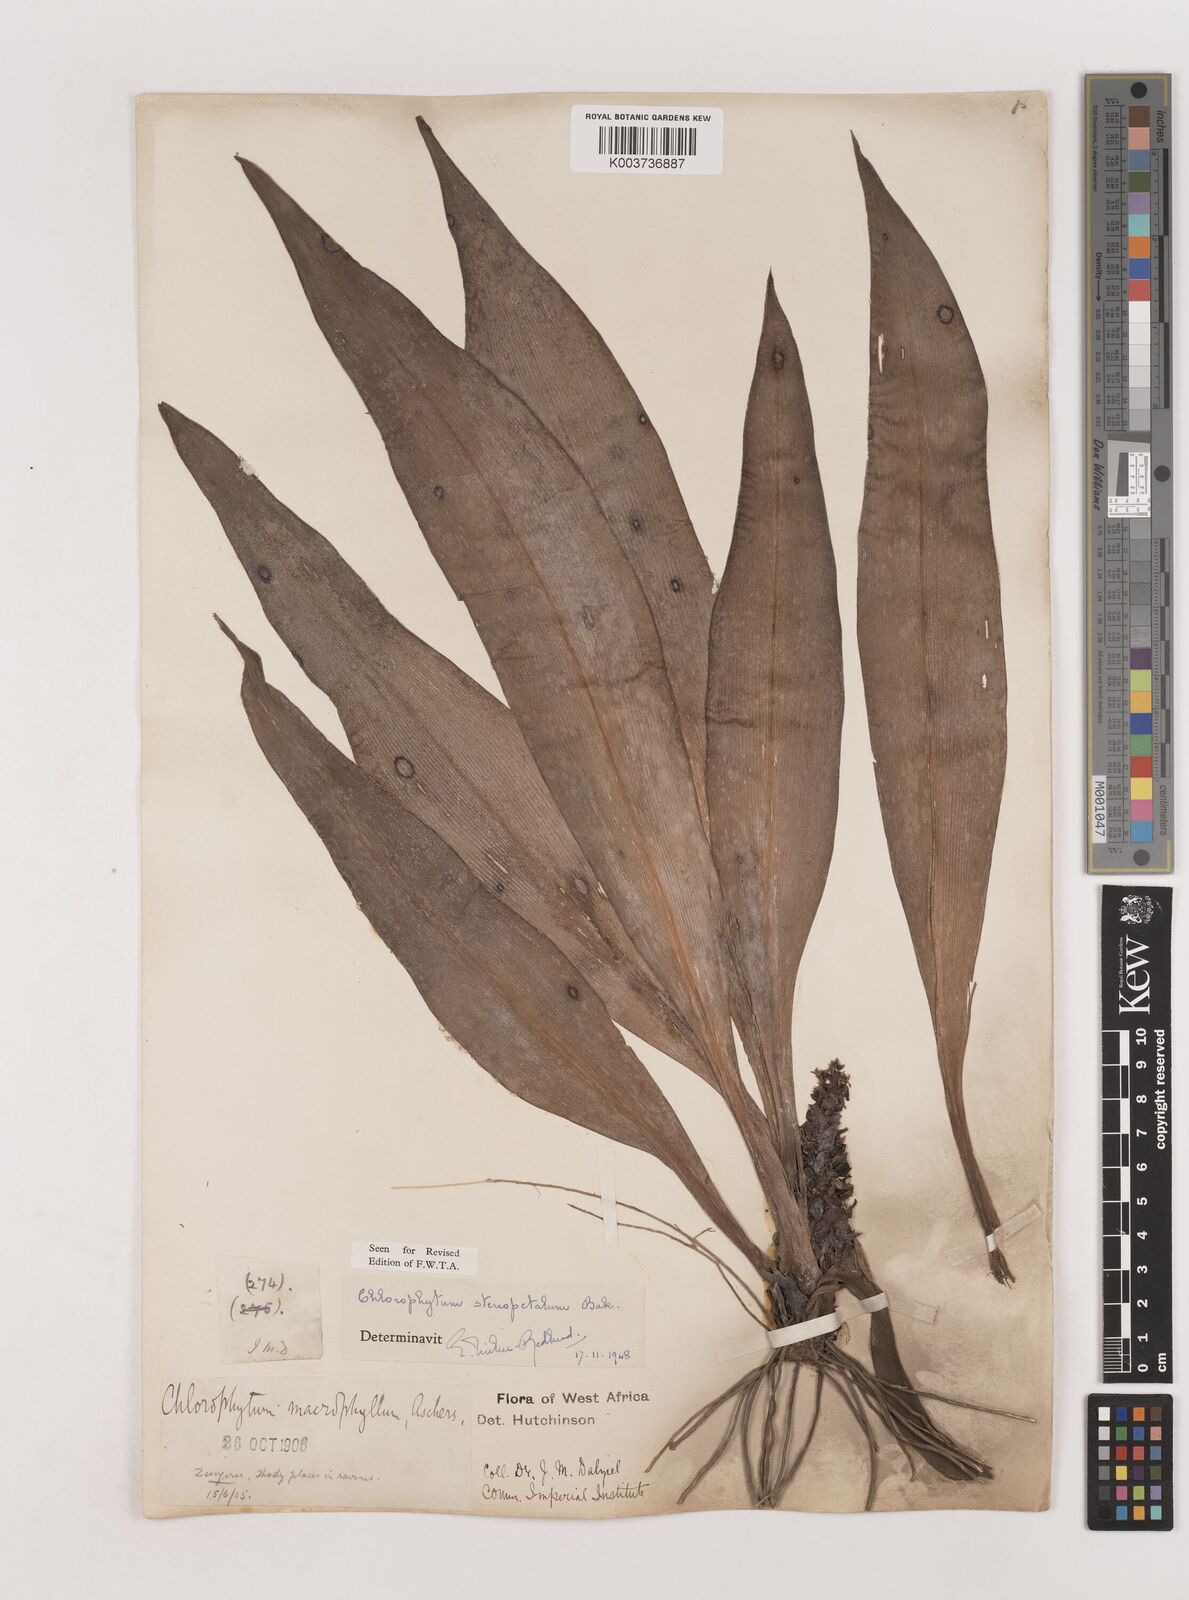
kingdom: Plantae
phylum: Tracheophyta
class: Liliopsida
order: Asparagales
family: Asparagaceae
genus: Chlorophytum
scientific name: Chlorophytum stenopetalum
